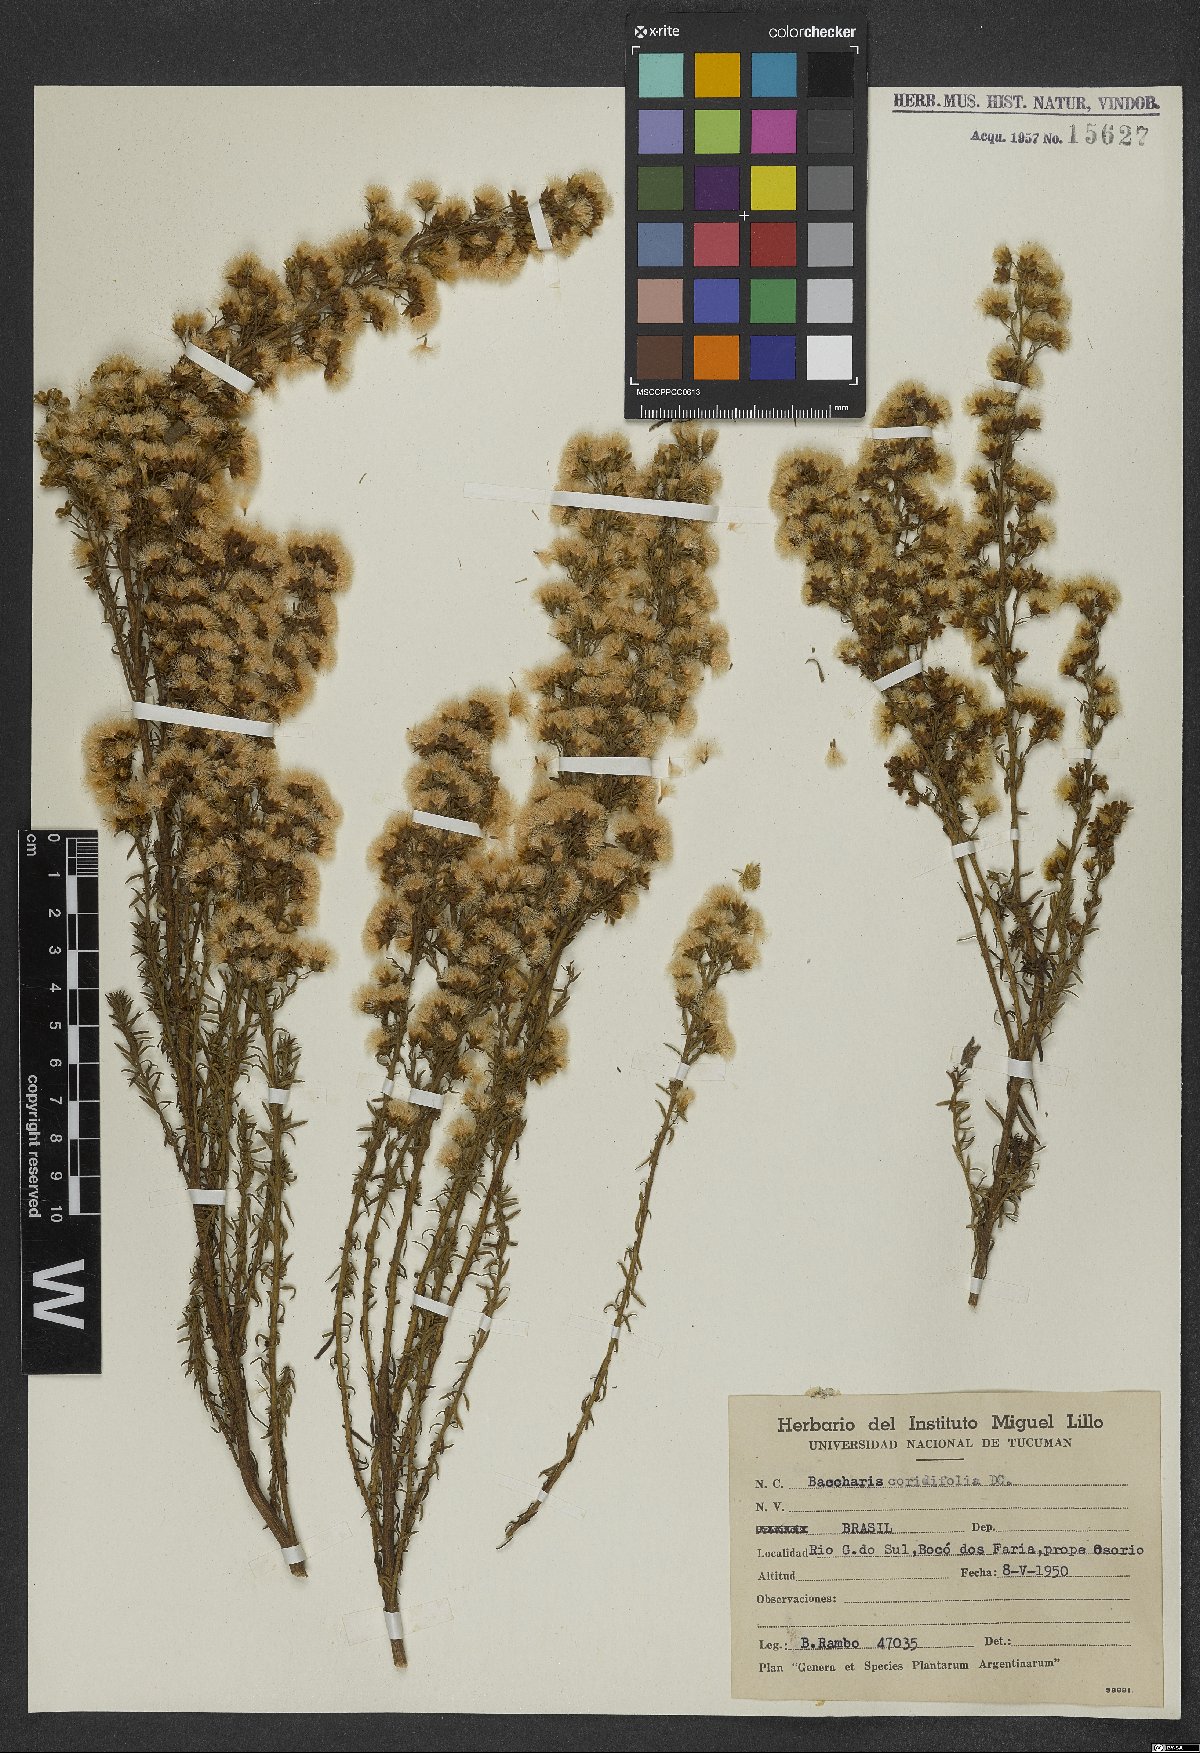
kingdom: Plantae
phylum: Tracheophyta
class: Magnoliopsida
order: Asterales
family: Asteraceae
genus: Baccharis
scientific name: Baccharis coridifolia
